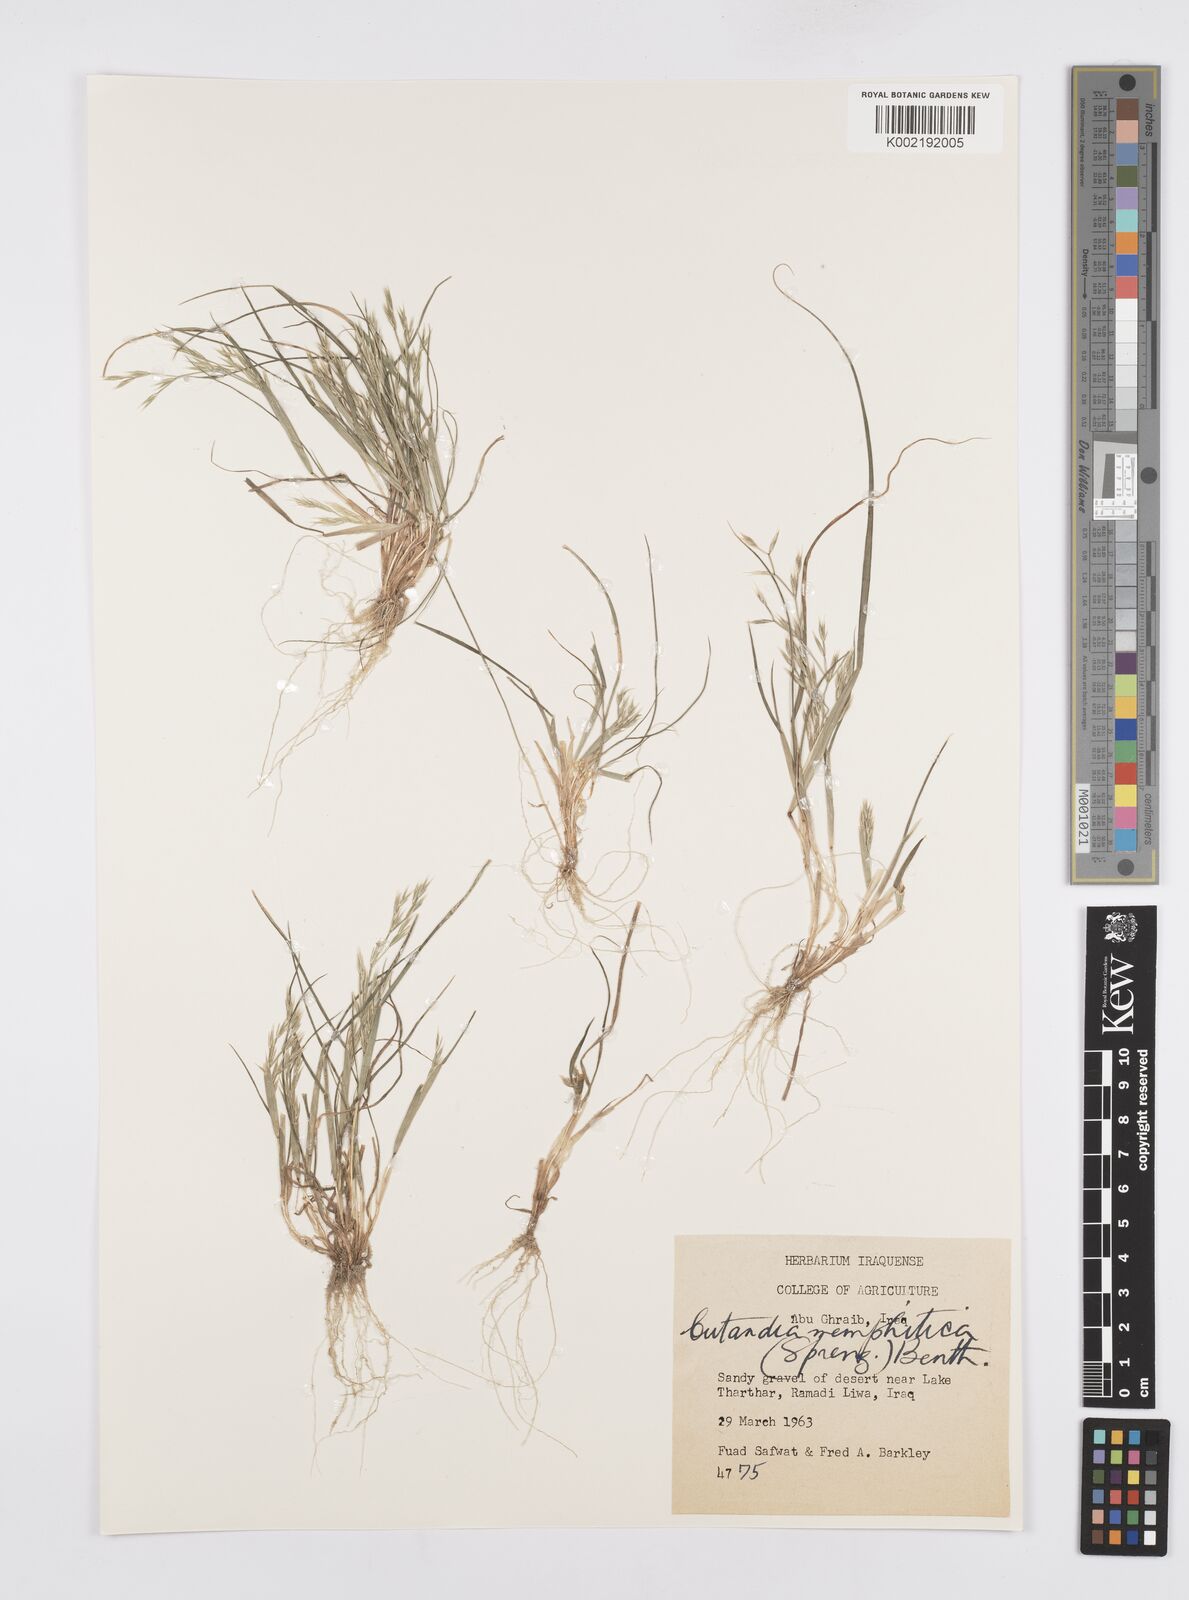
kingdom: Plantae
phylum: Tracheophyta
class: Liliopsida
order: Poales
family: Poaceae
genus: Cutandia
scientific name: Cutandia memphitica
